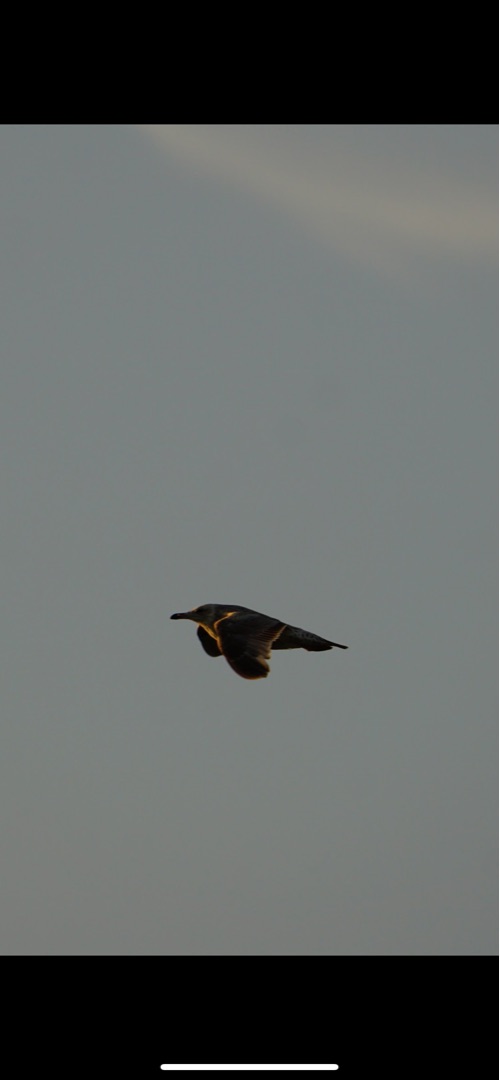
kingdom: Animalia
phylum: Chordata
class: Aves
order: Charadriiformes
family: Laridae
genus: Larus
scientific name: Larus argentatus
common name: Sølvmåge
